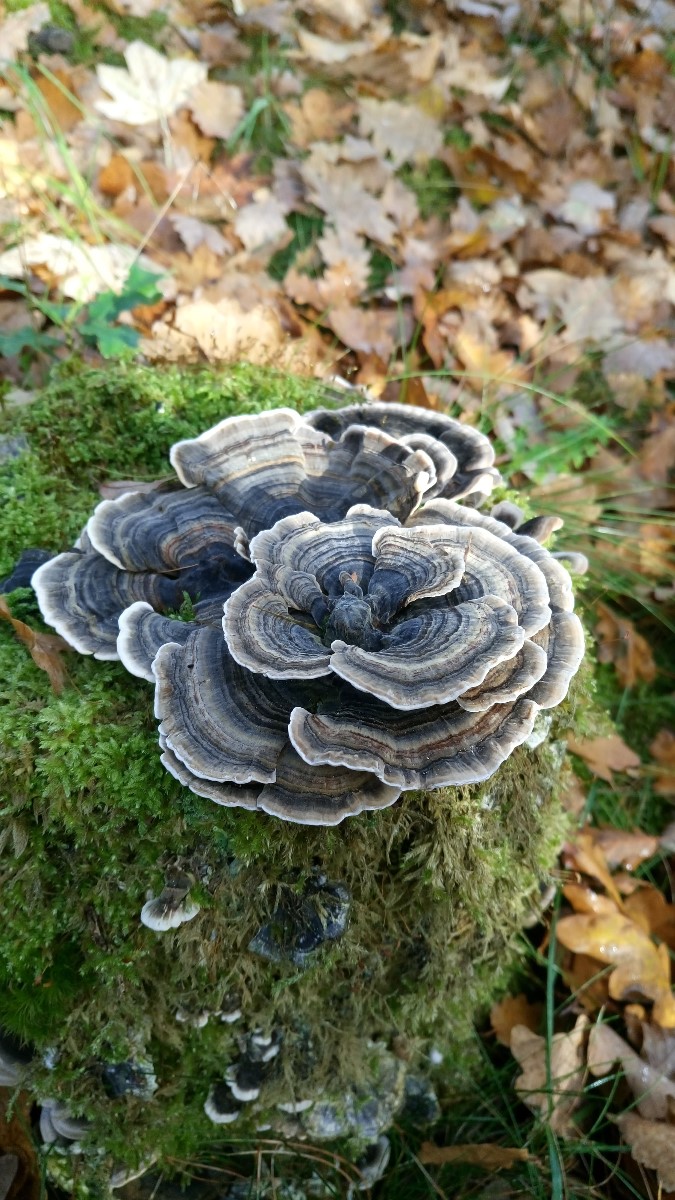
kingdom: Fungi
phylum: Basidiomycota
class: Agaricomycetes
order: Polyporales
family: Polyporaceae
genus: Trametes
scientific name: Trametes versicolor
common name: broget læderporesvamp
